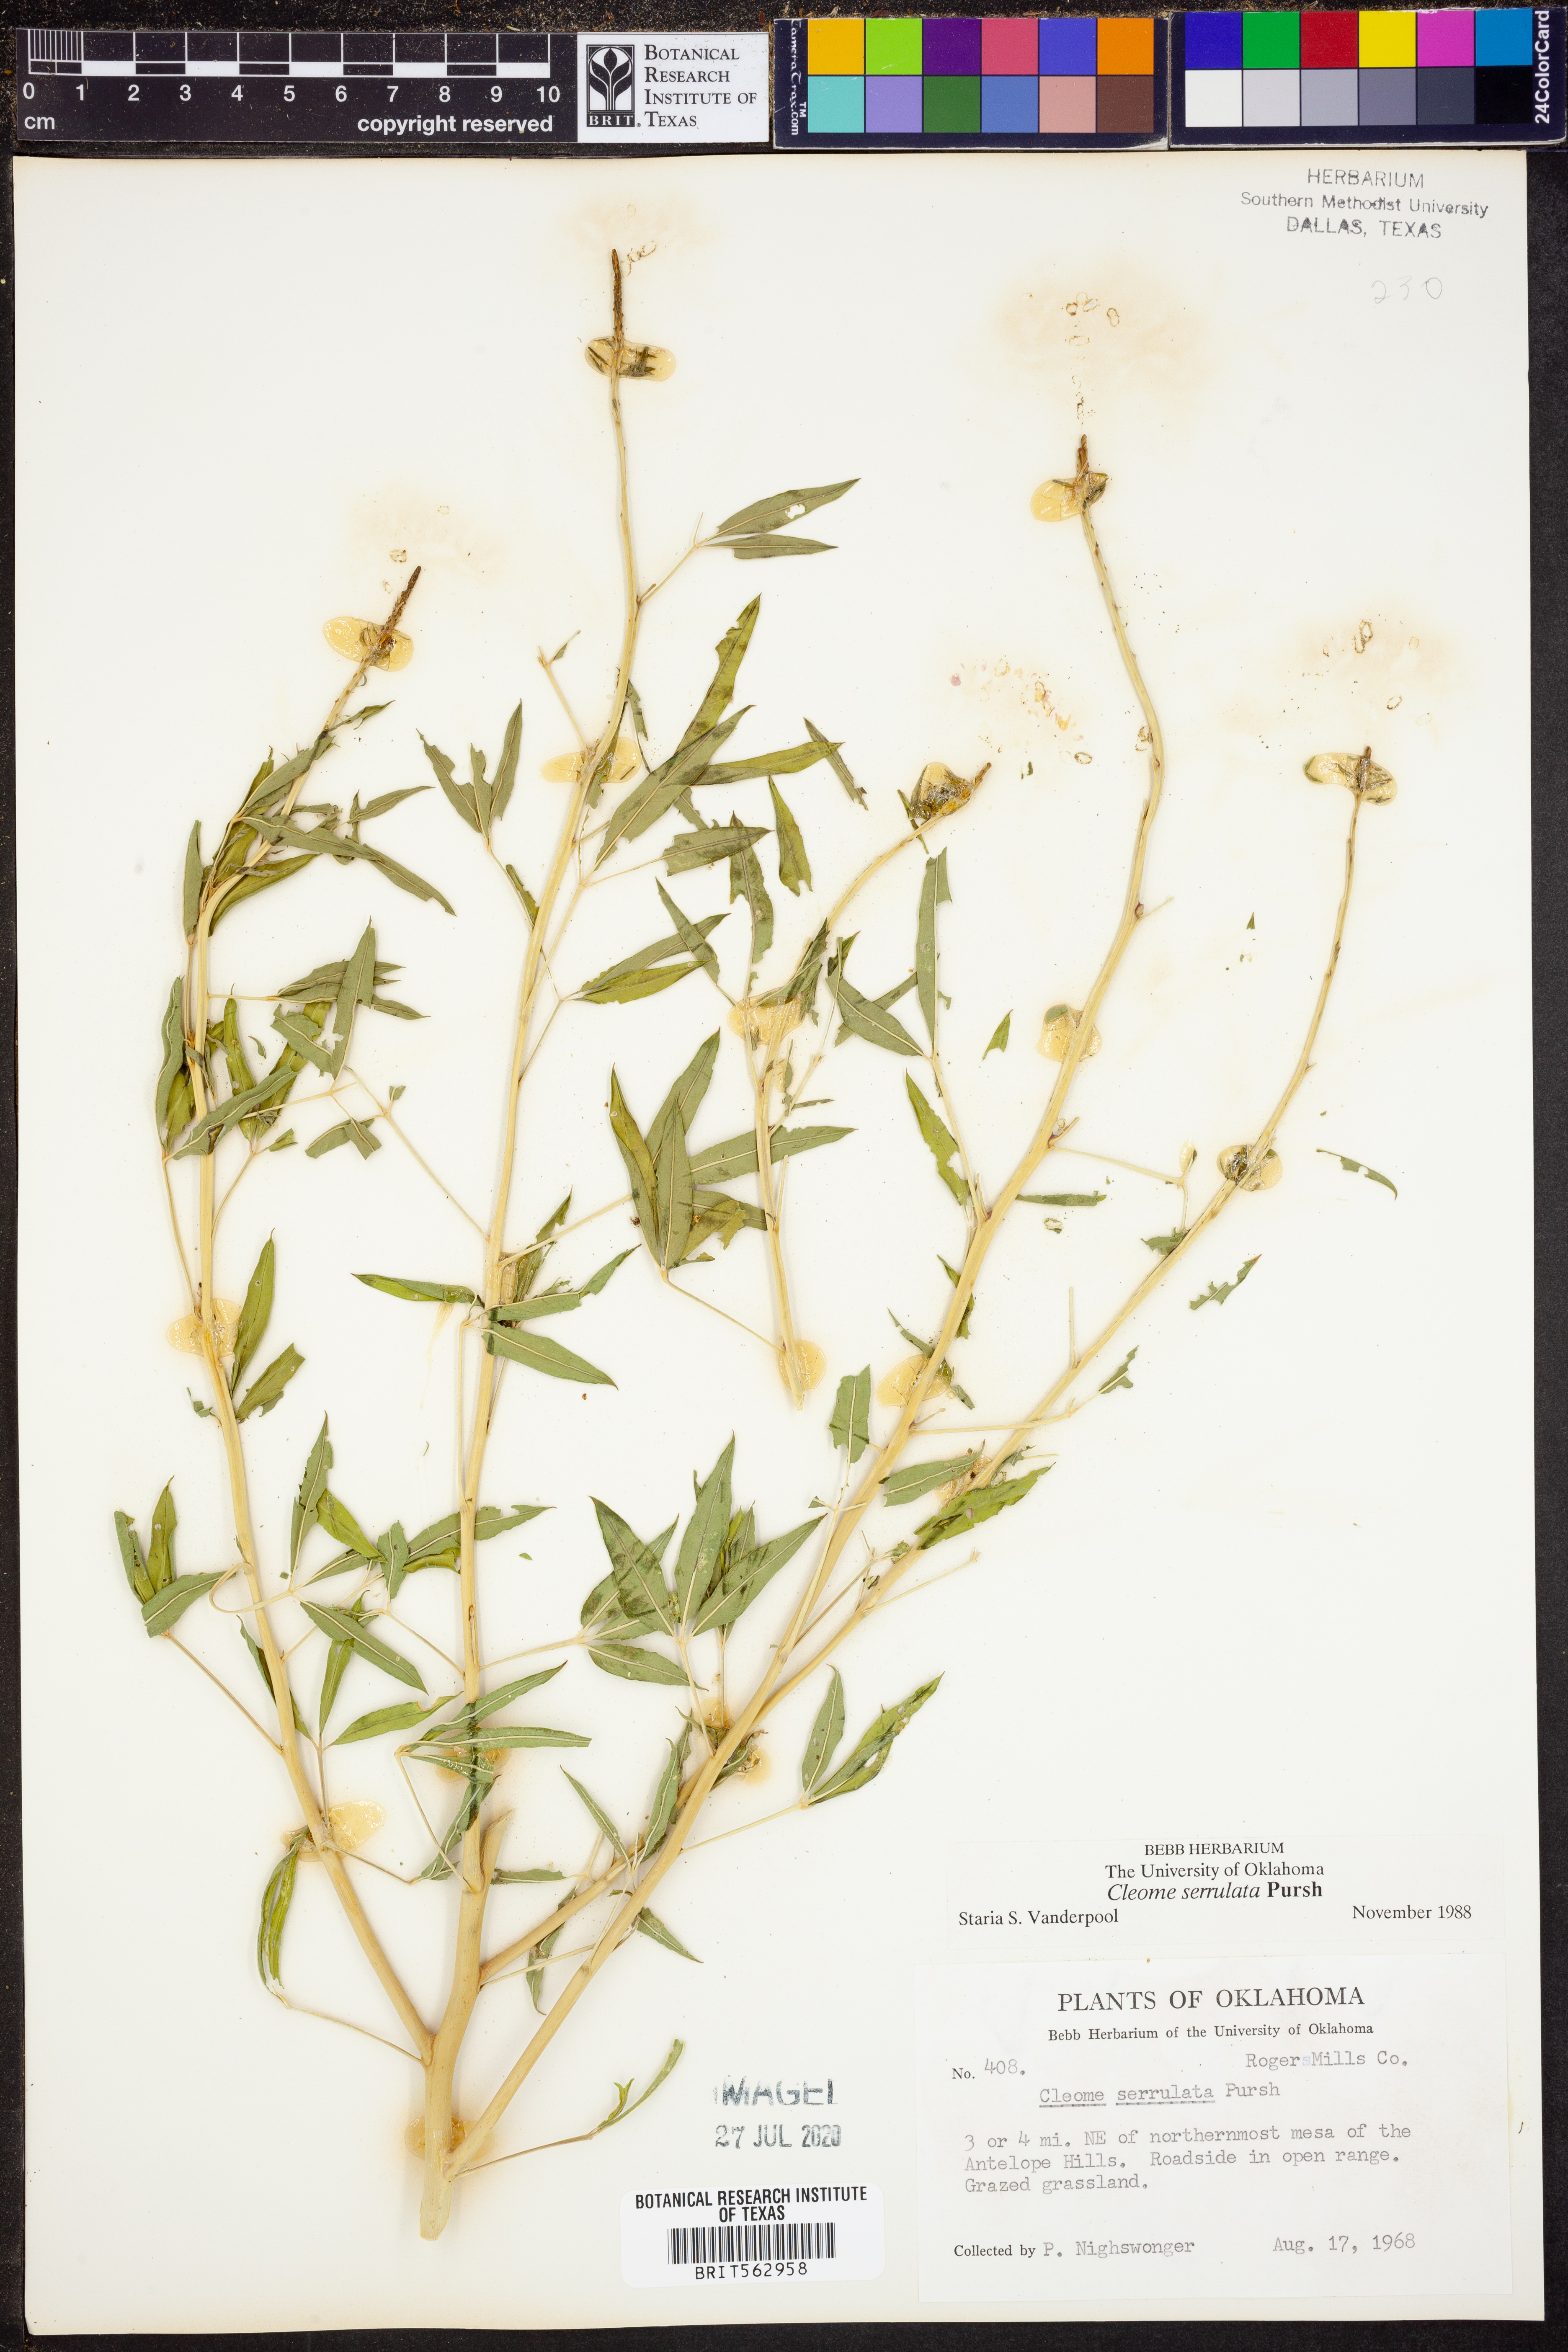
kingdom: Plantae
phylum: Tracheophyta
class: Magnoliopsida
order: Brassicales
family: Cleomaceae
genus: Cleomella
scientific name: Cleomella serrulata
